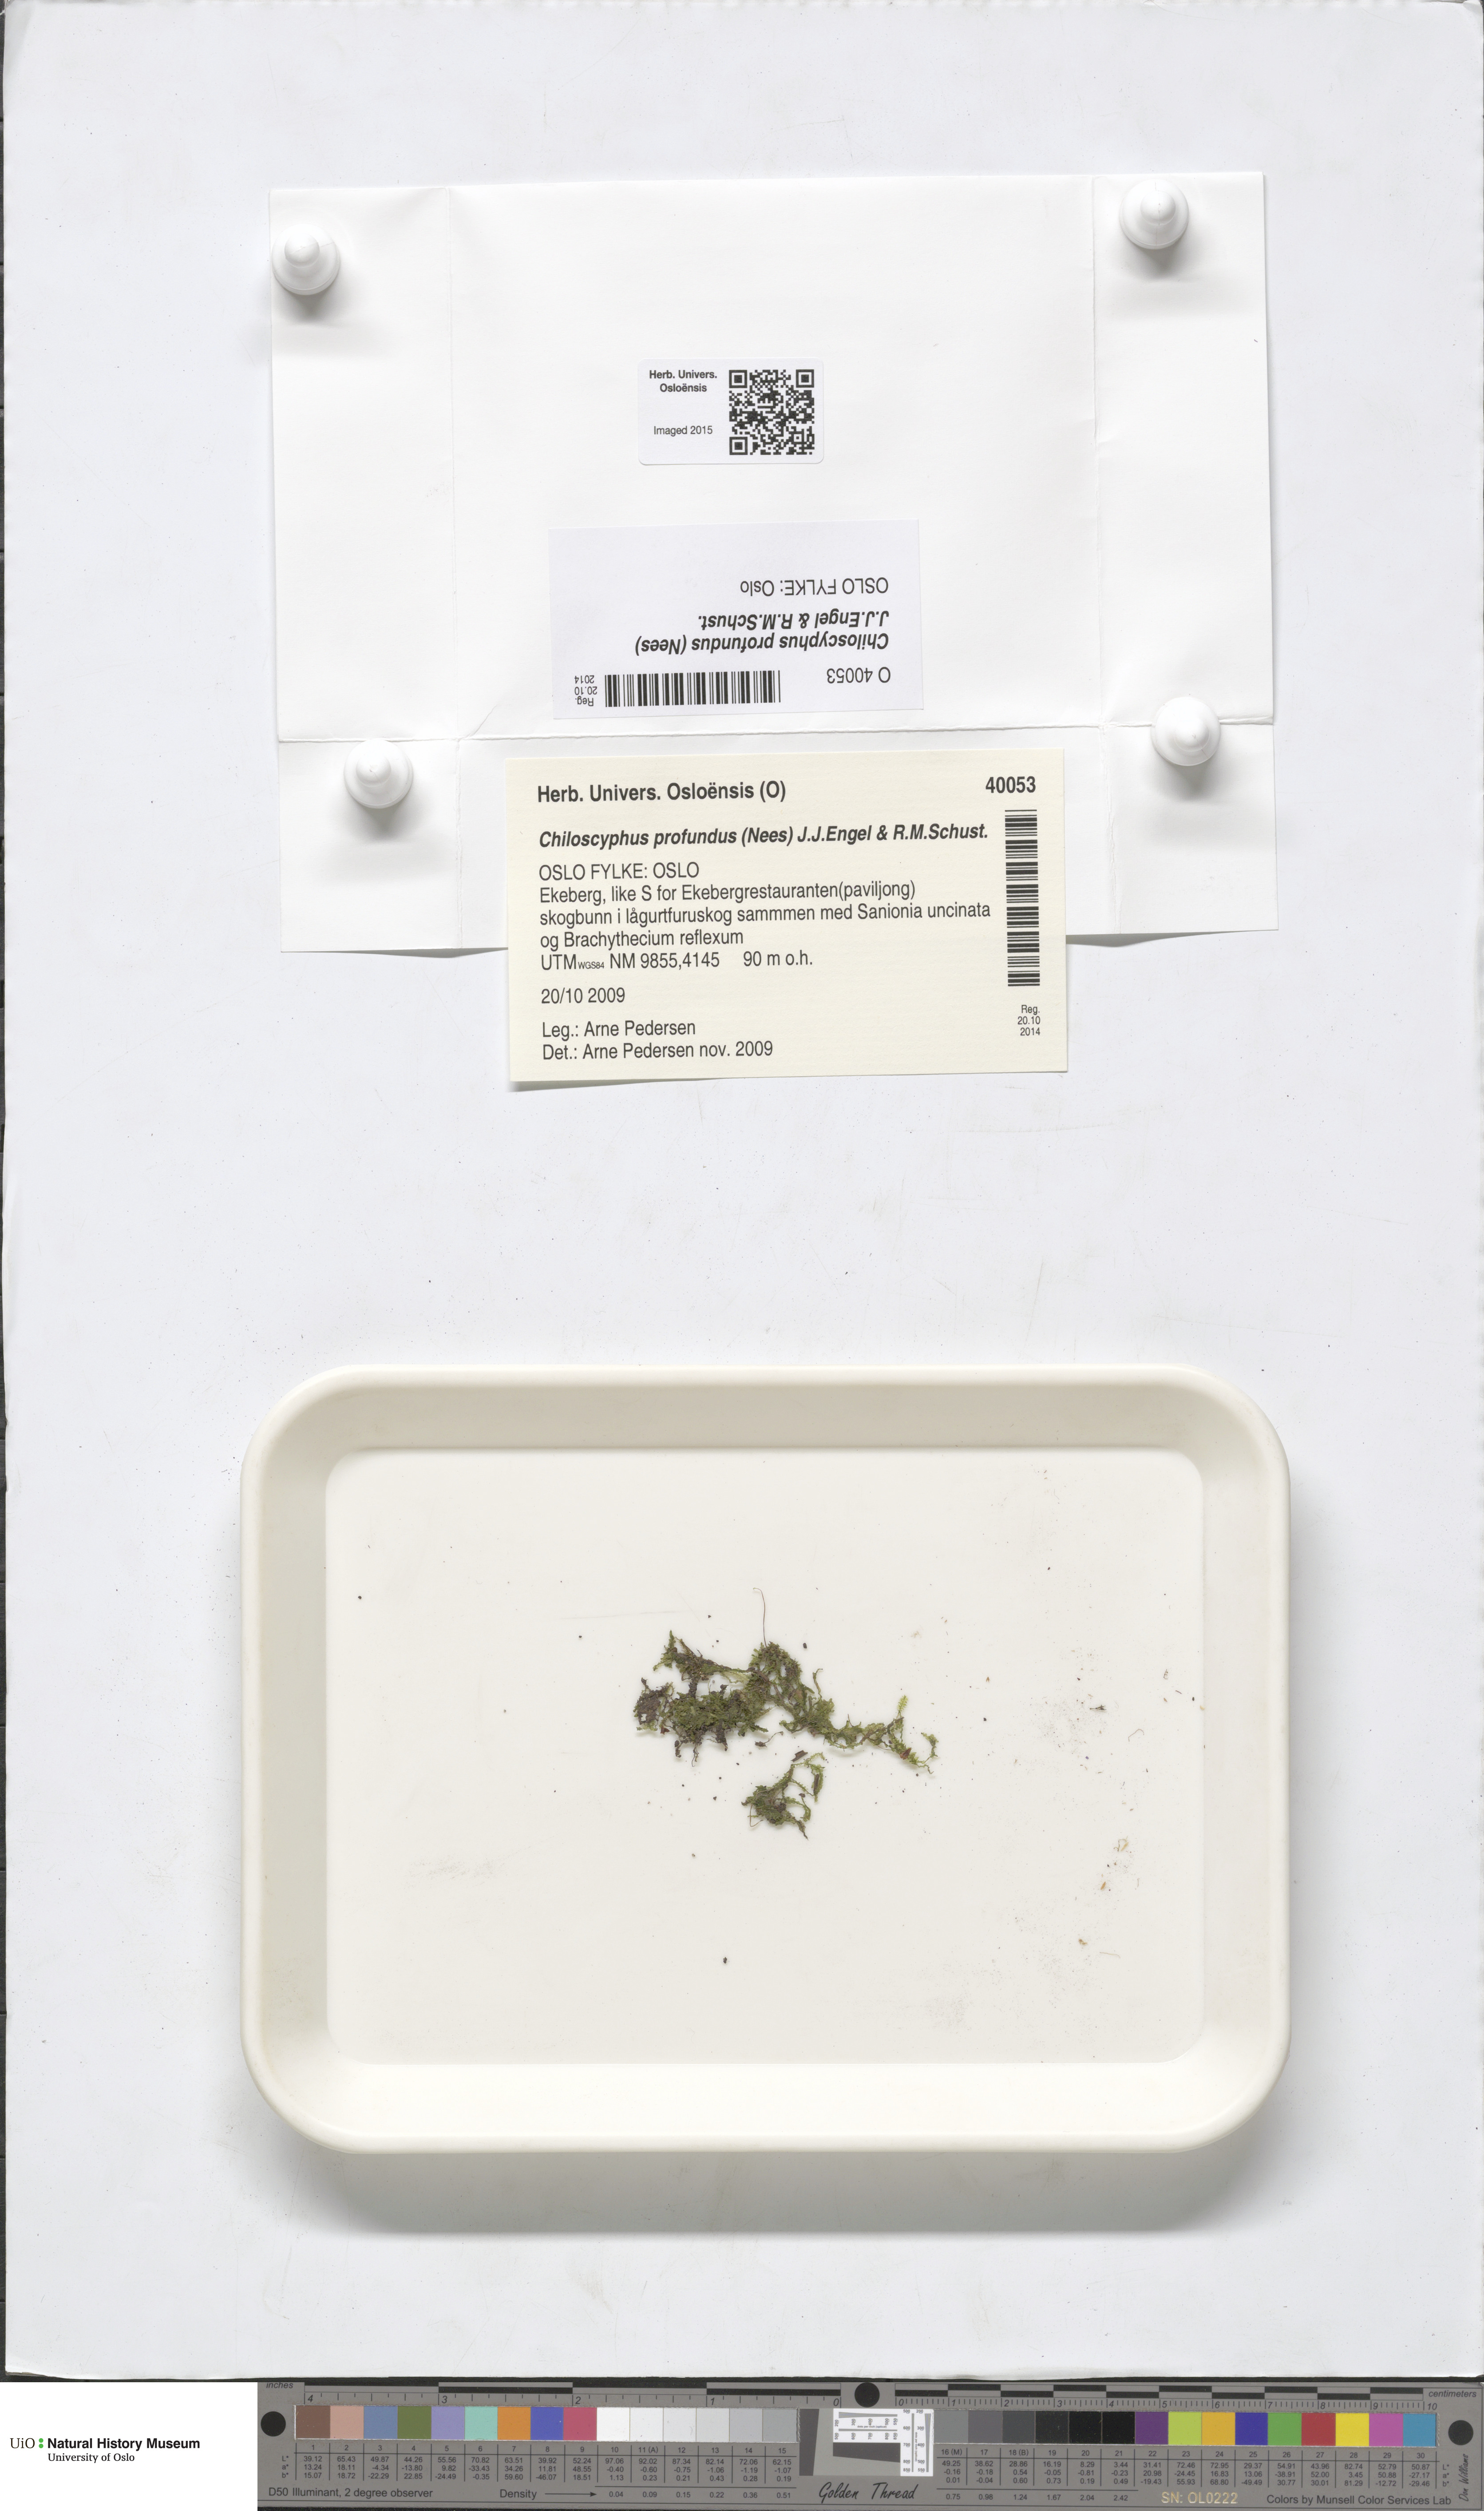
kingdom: Plantae
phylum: Marchantiophyta
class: Jungermanniopsida
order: Jungermanniales
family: Lophocoleaceae
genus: Lophocolea
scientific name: Lophocolea heterophylla
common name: Variable-leaved crestwort
